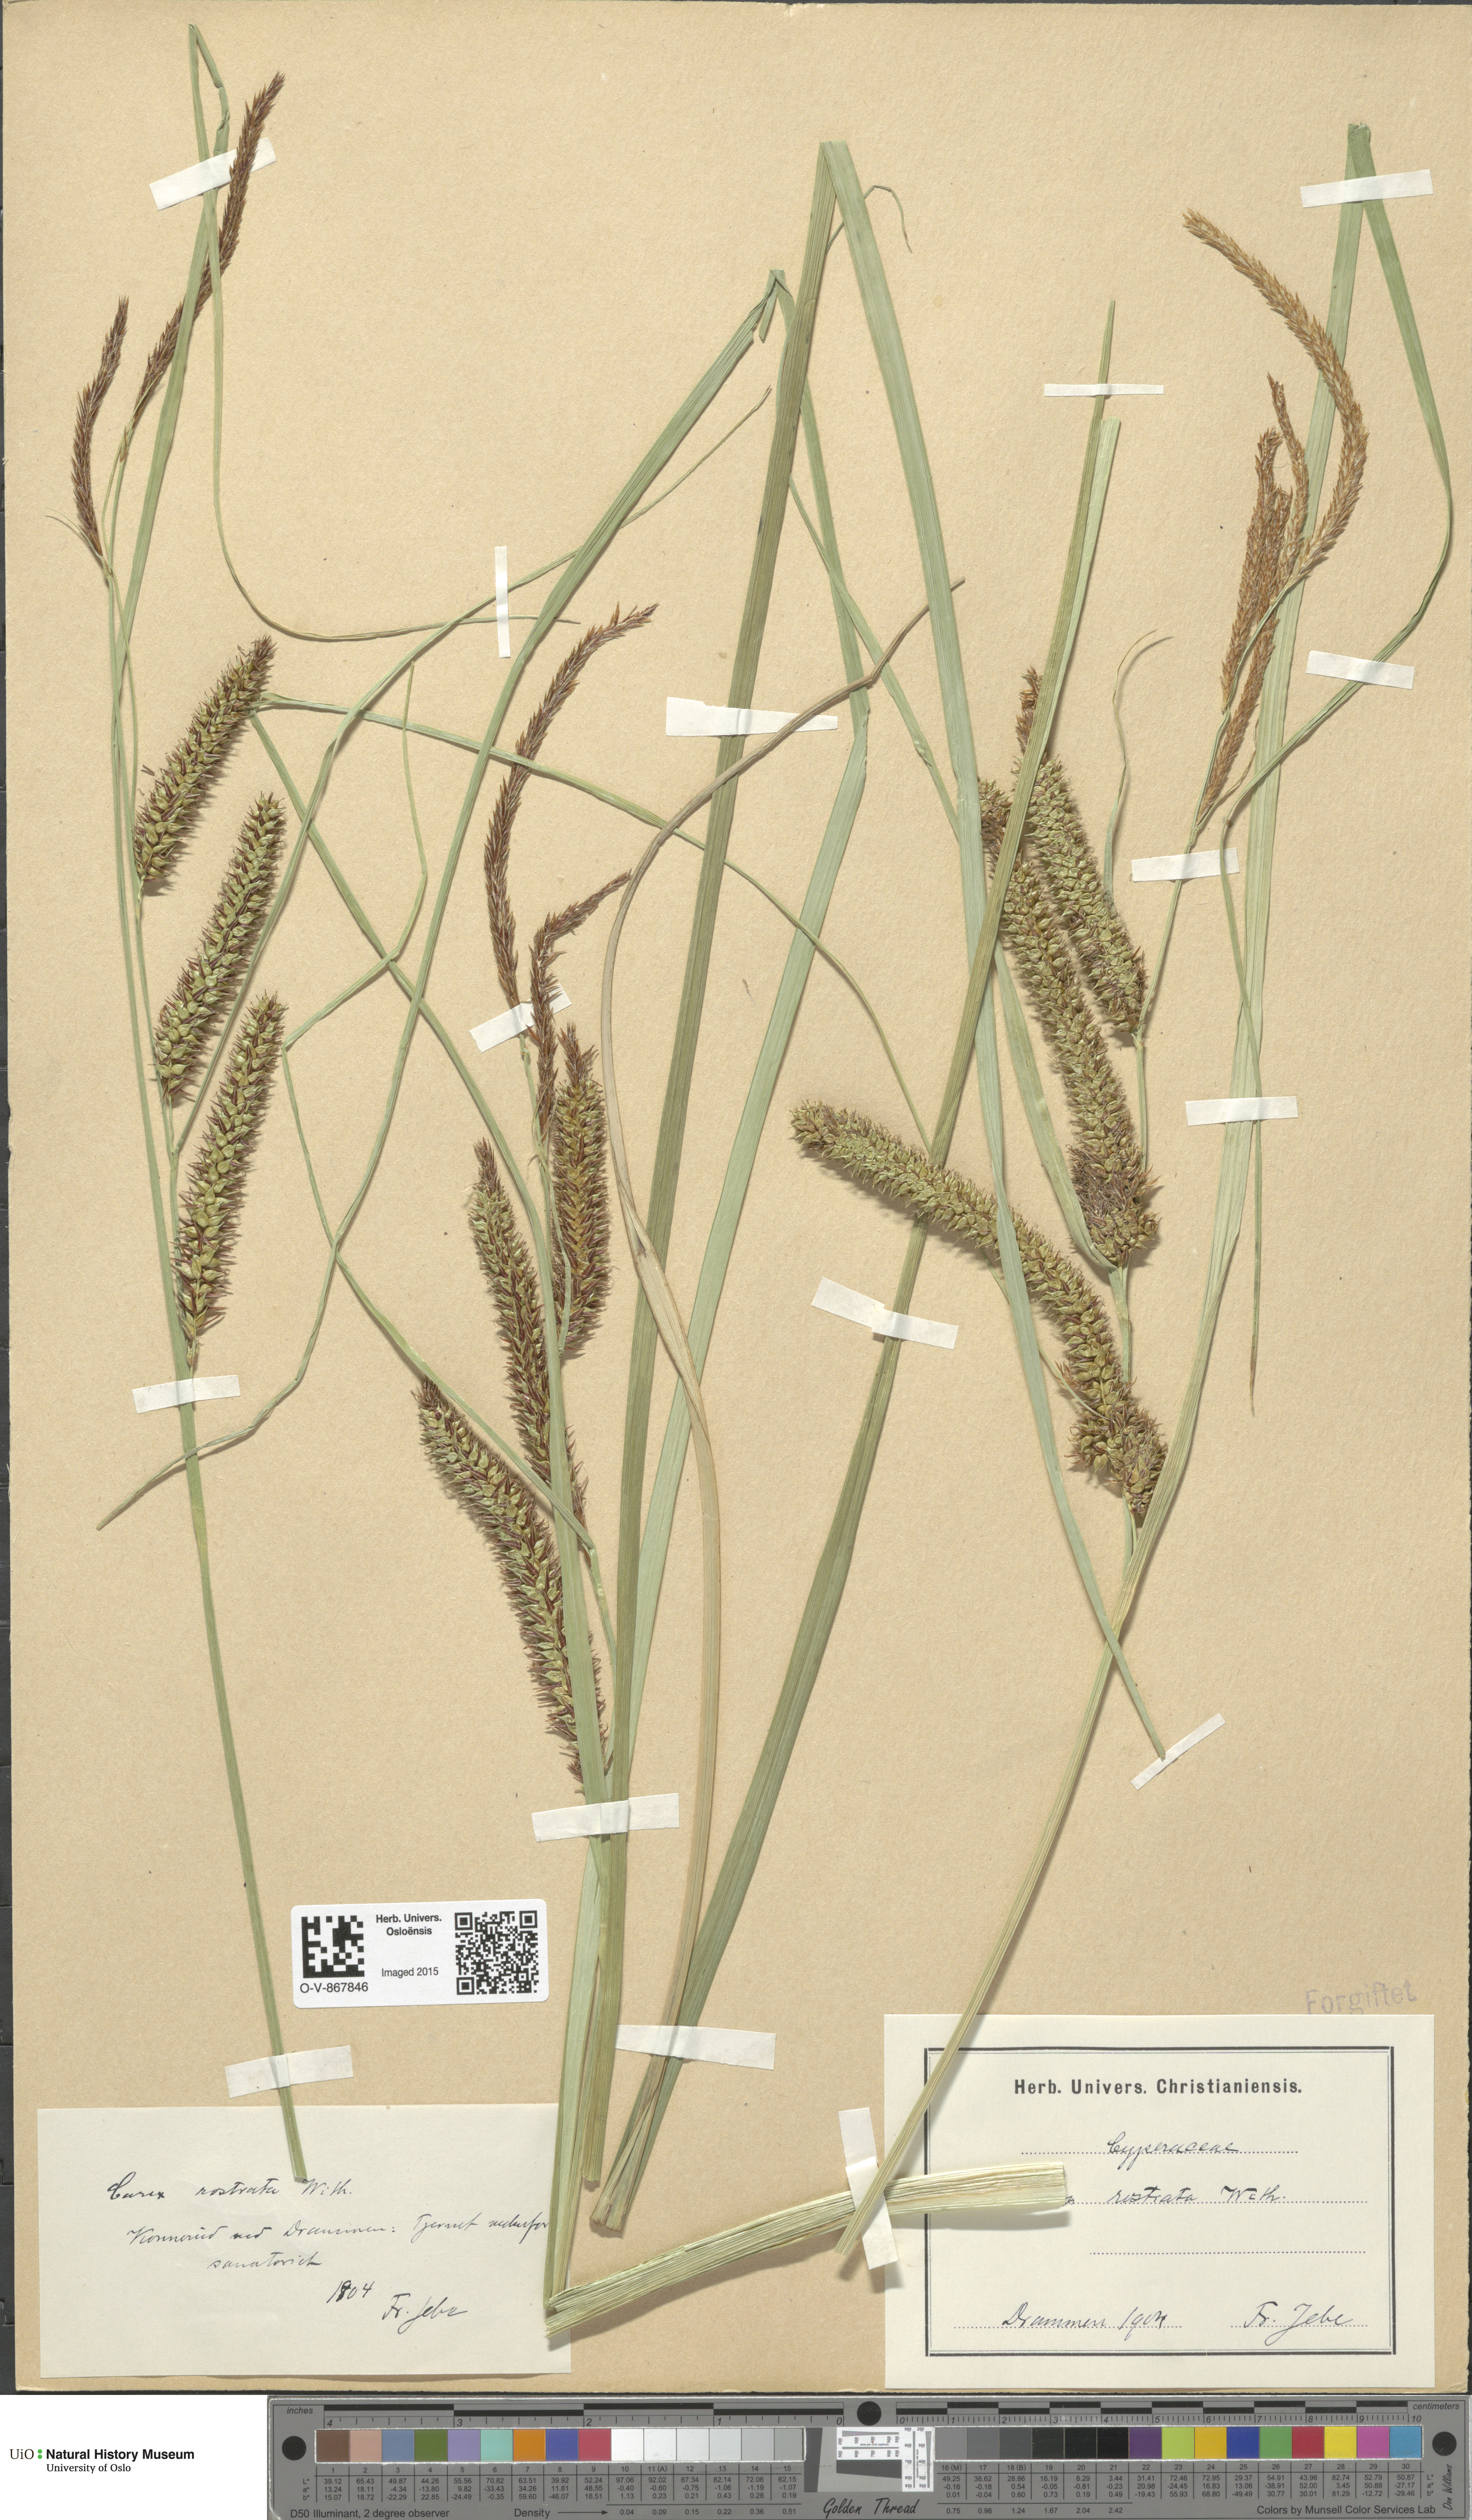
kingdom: Plantae
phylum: Tracheophyta
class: Liliopsida
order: Poales
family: Cyperaceae
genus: Carex
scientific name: Carex rostrata
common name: Bottle sedge
